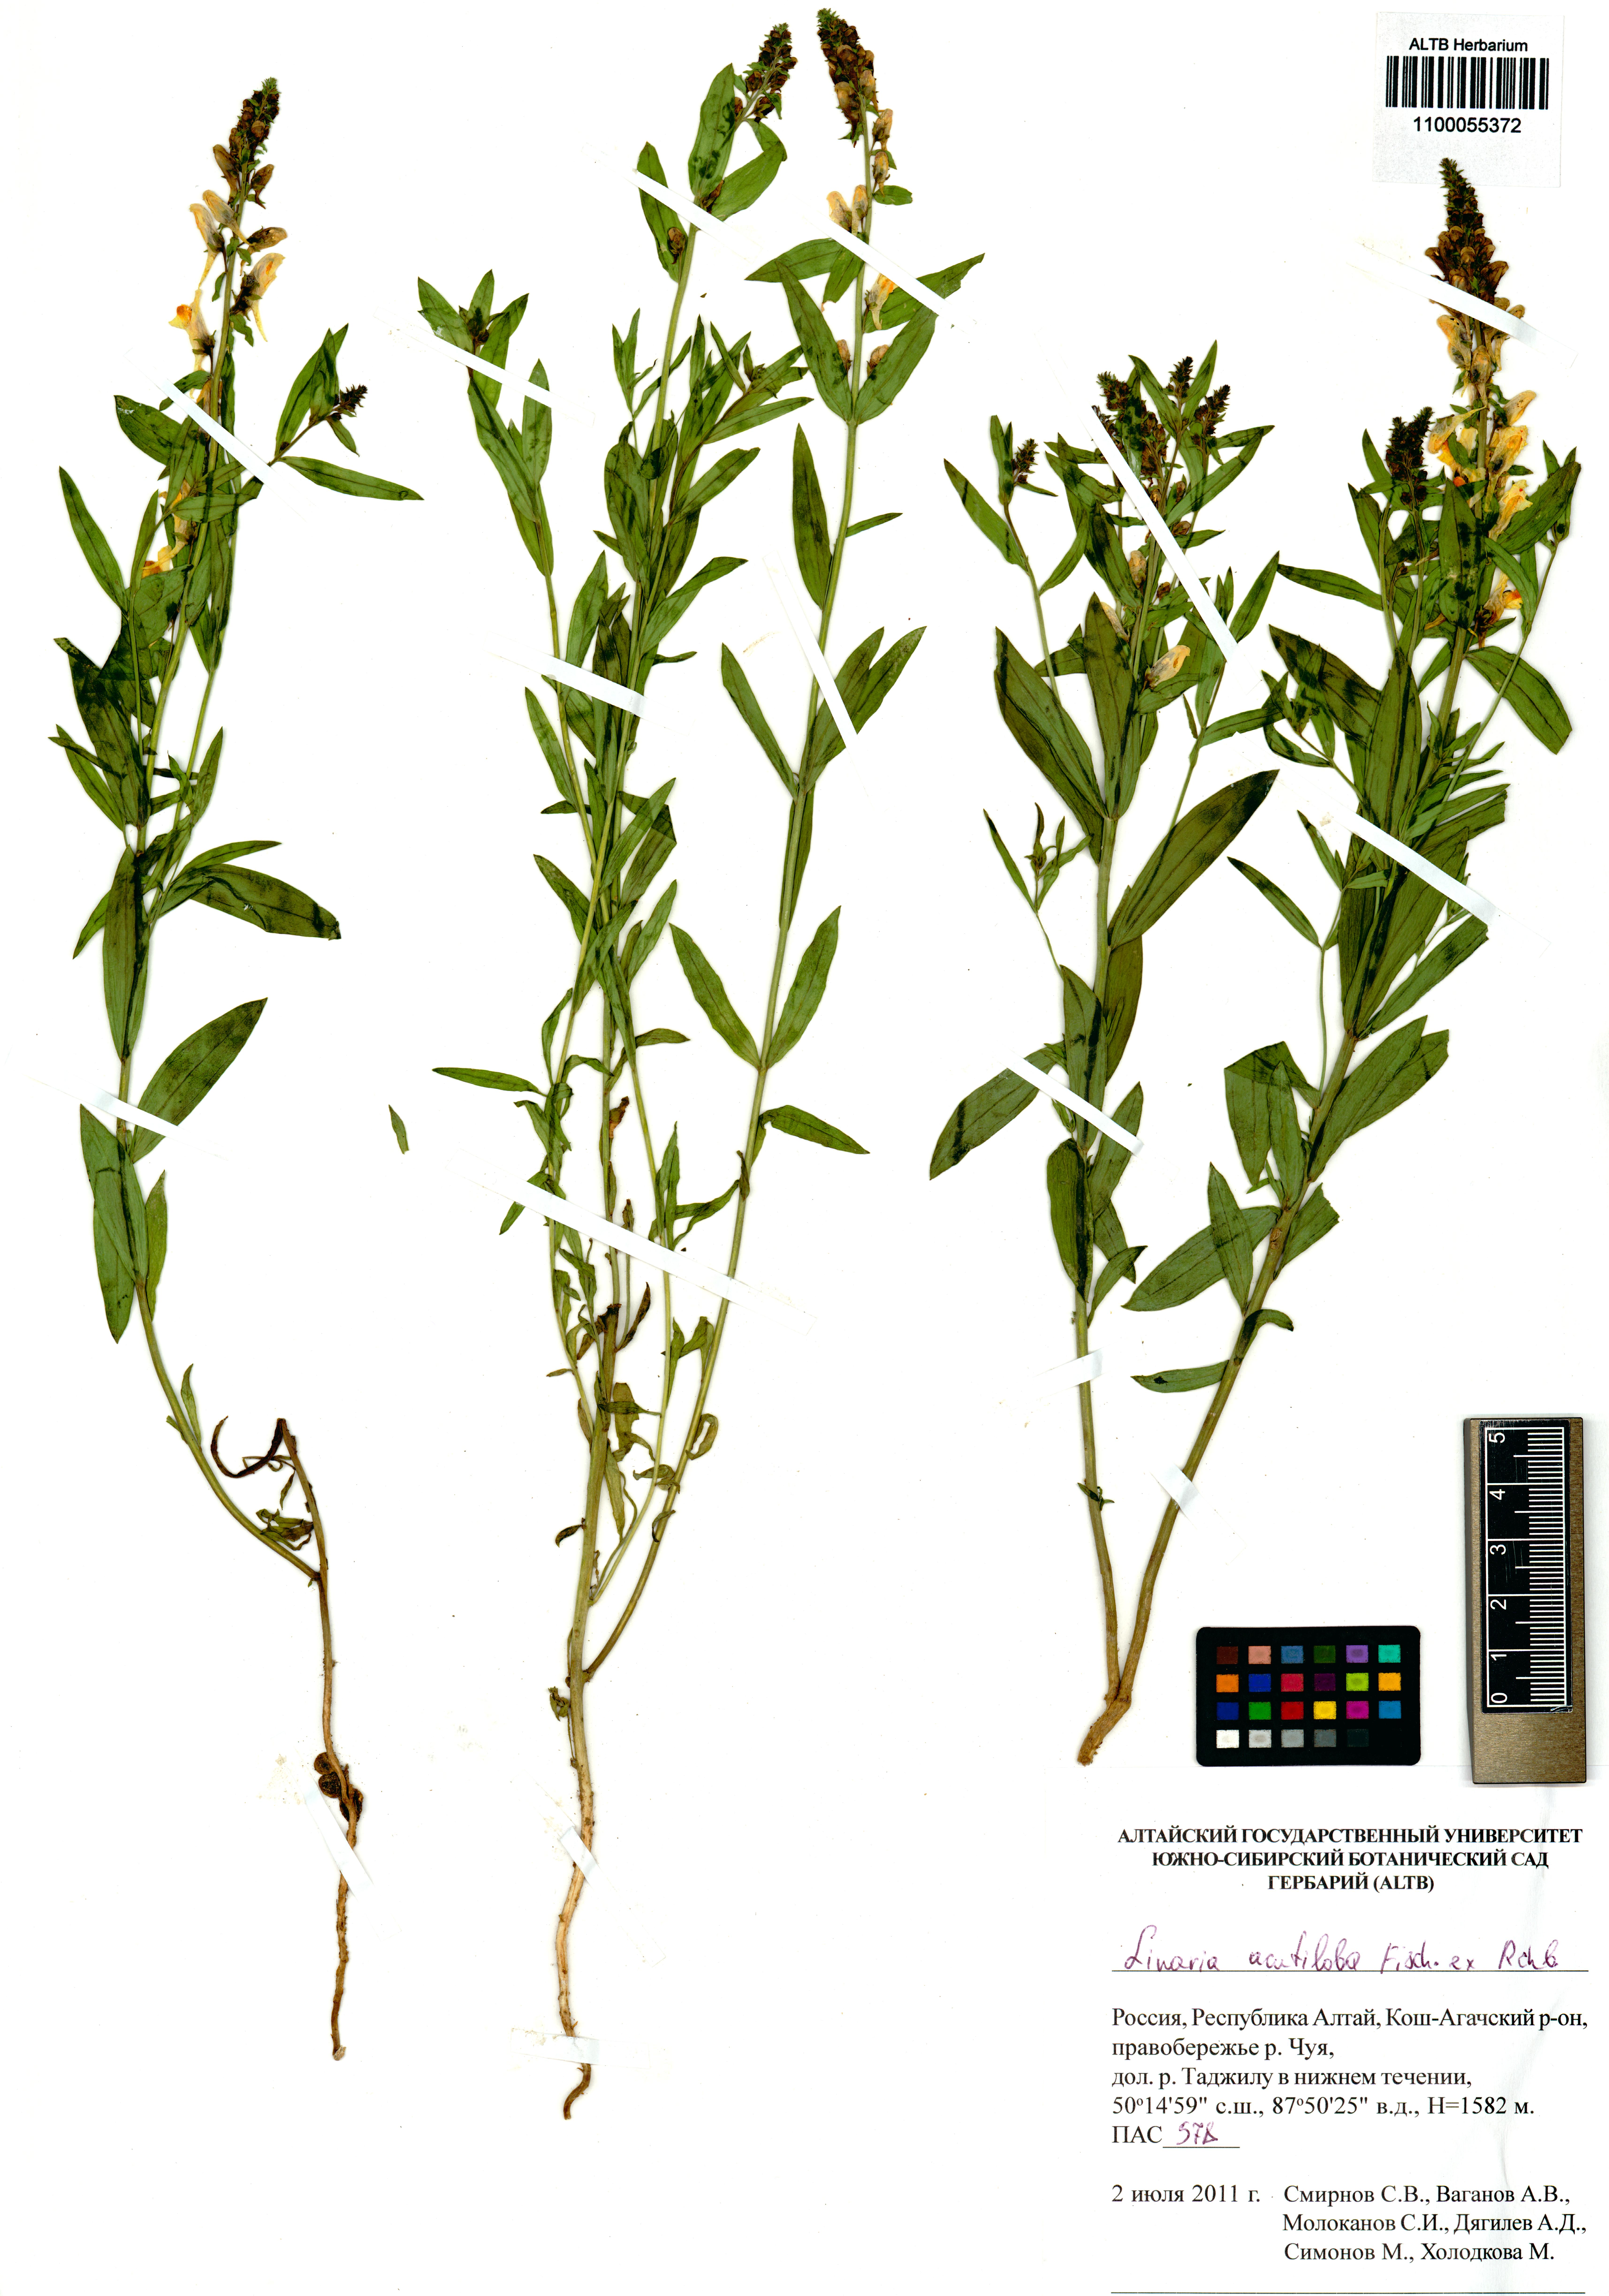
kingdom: Plantae
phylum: Tracheophyta
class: Magnoliopsida
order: Lamiales
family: Plantaginaceae
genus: Linaria
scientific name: Linaria acutiloba
